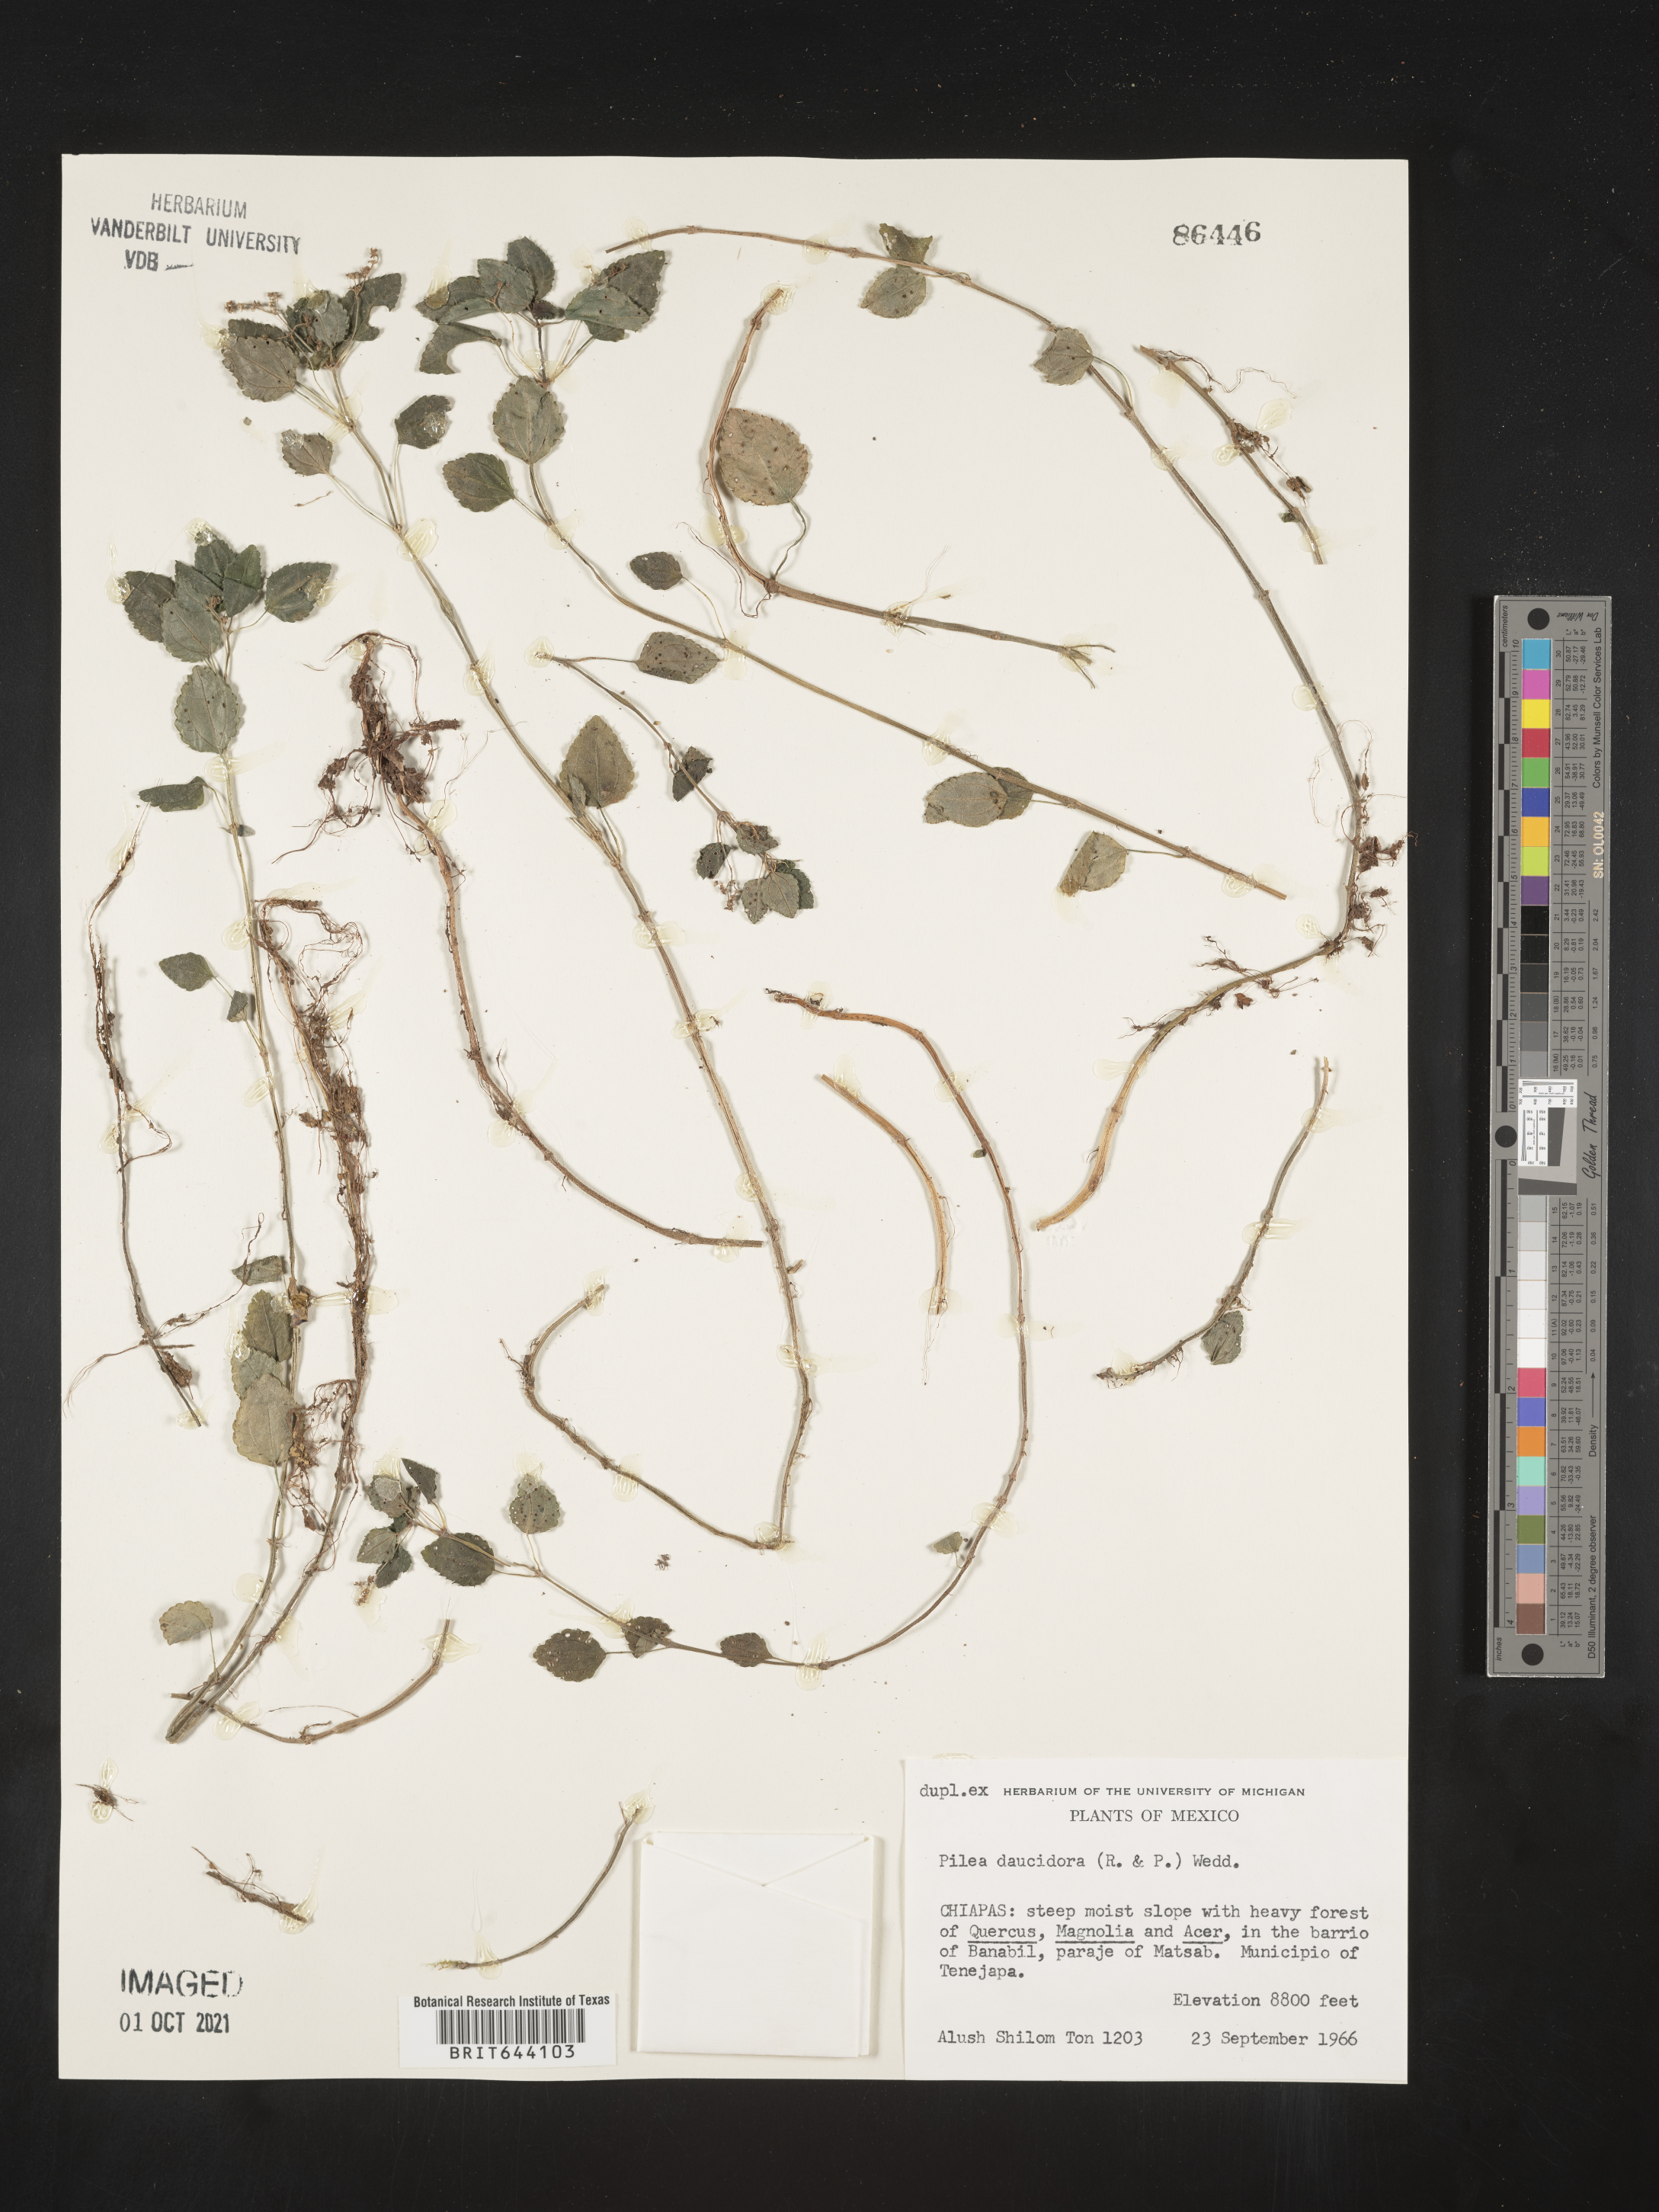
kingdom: Plantae
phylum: Tracheophyta
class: Magnoliopsida
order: Rosales
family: Urticaceae
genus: Pilea
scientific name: Pilea
